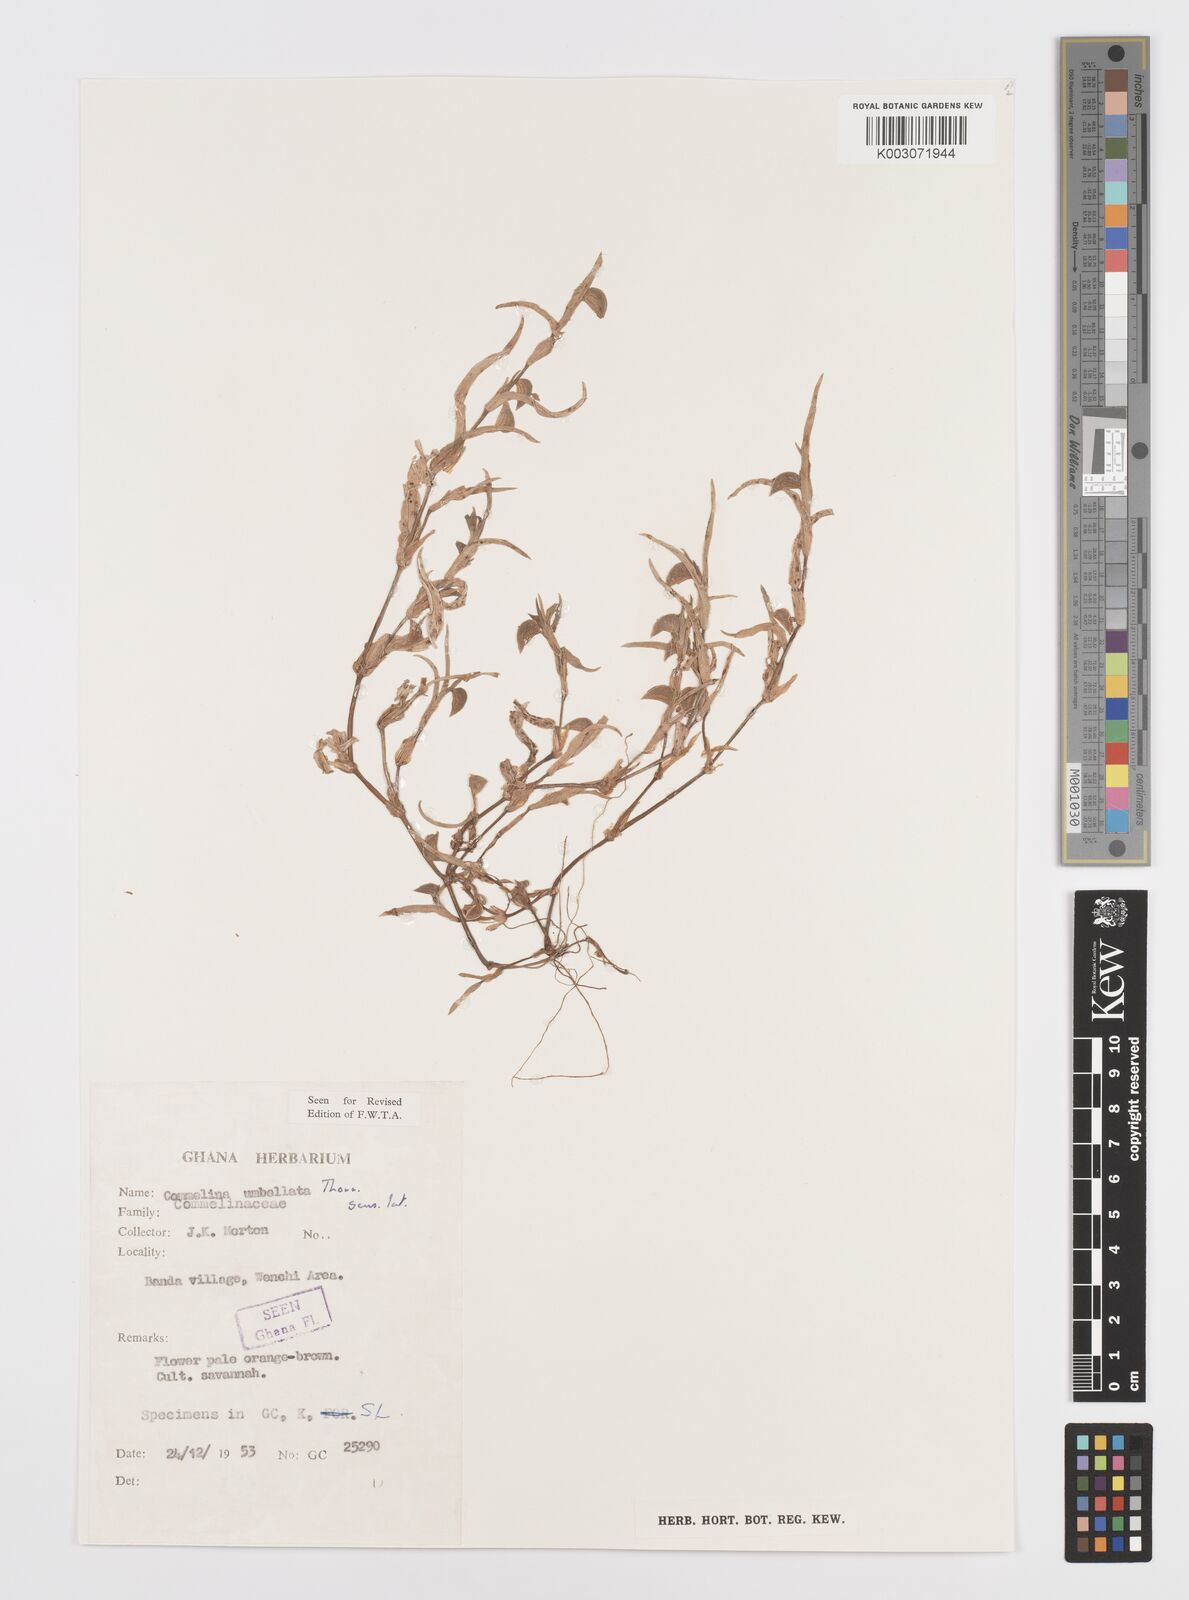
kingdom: Plantae
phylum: Tracheophyta
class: Liliopsida
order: Commelinales
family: Commelinaceae
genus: Commelina
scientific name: Commelina
